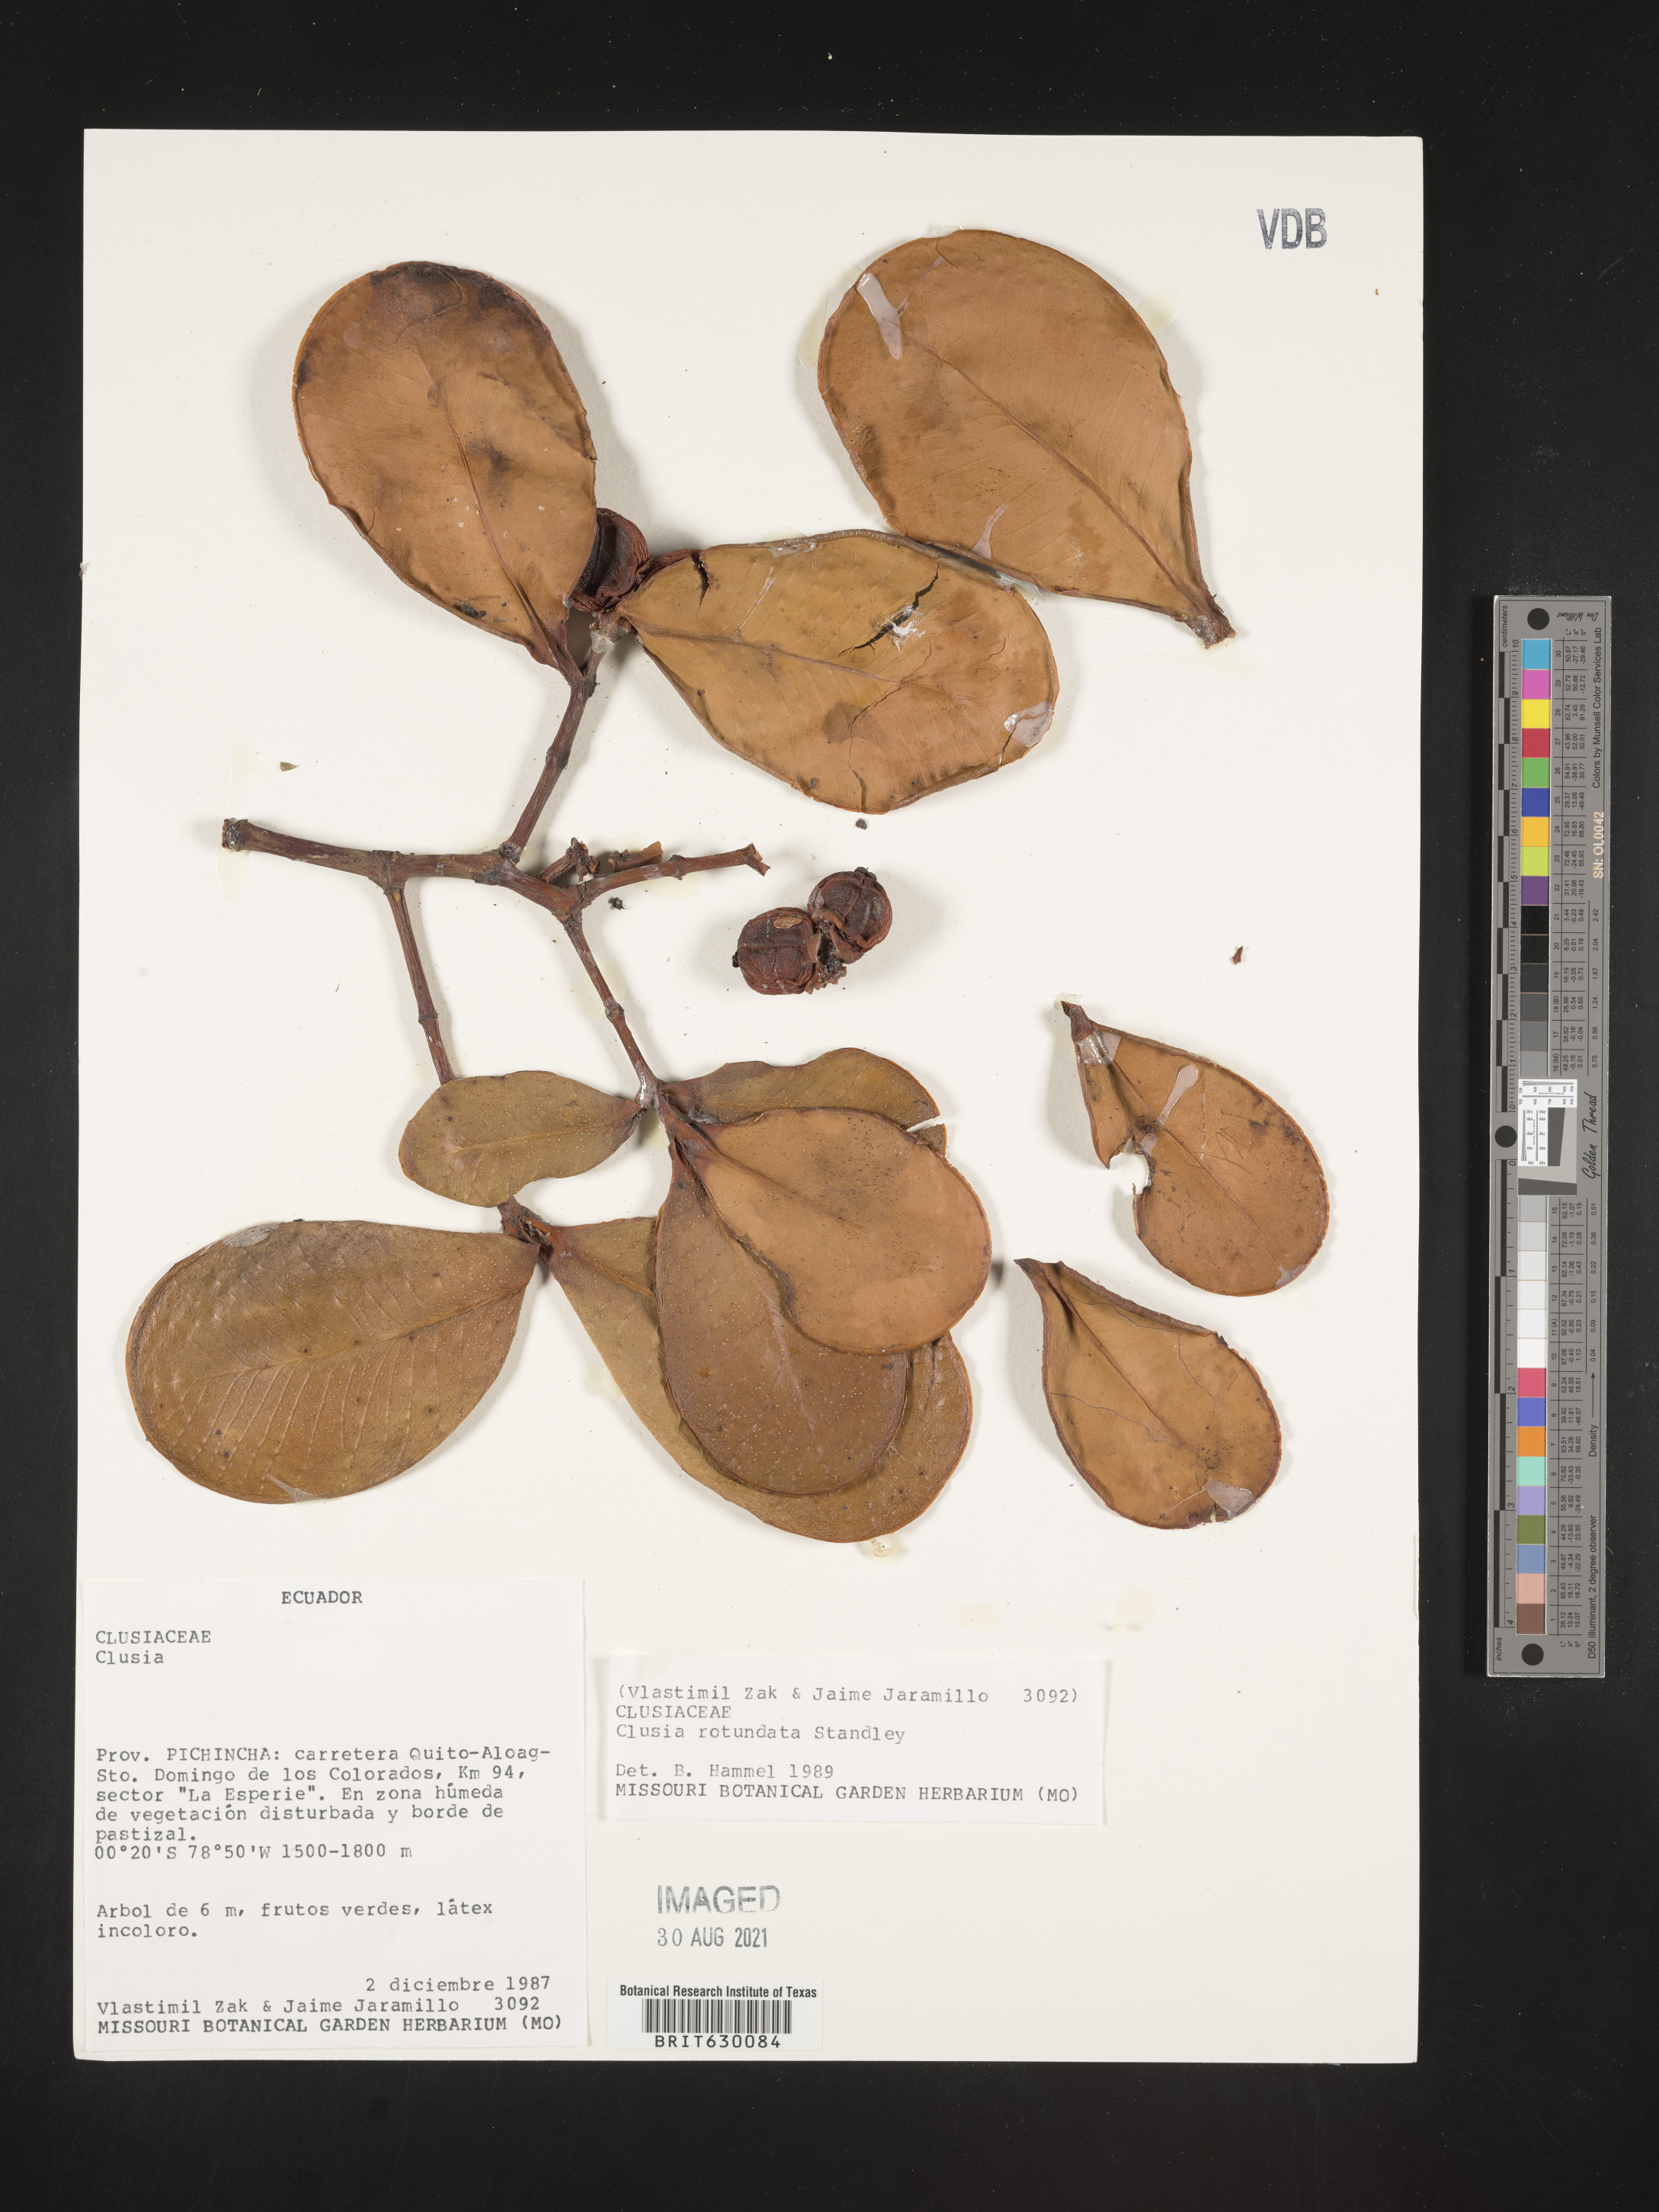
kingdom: Plantae
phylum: Tracheophyta
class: Magnoliopsida
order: Malpighiales
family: Clusiaceae
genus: Clusia
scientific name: Clusia rotundata
